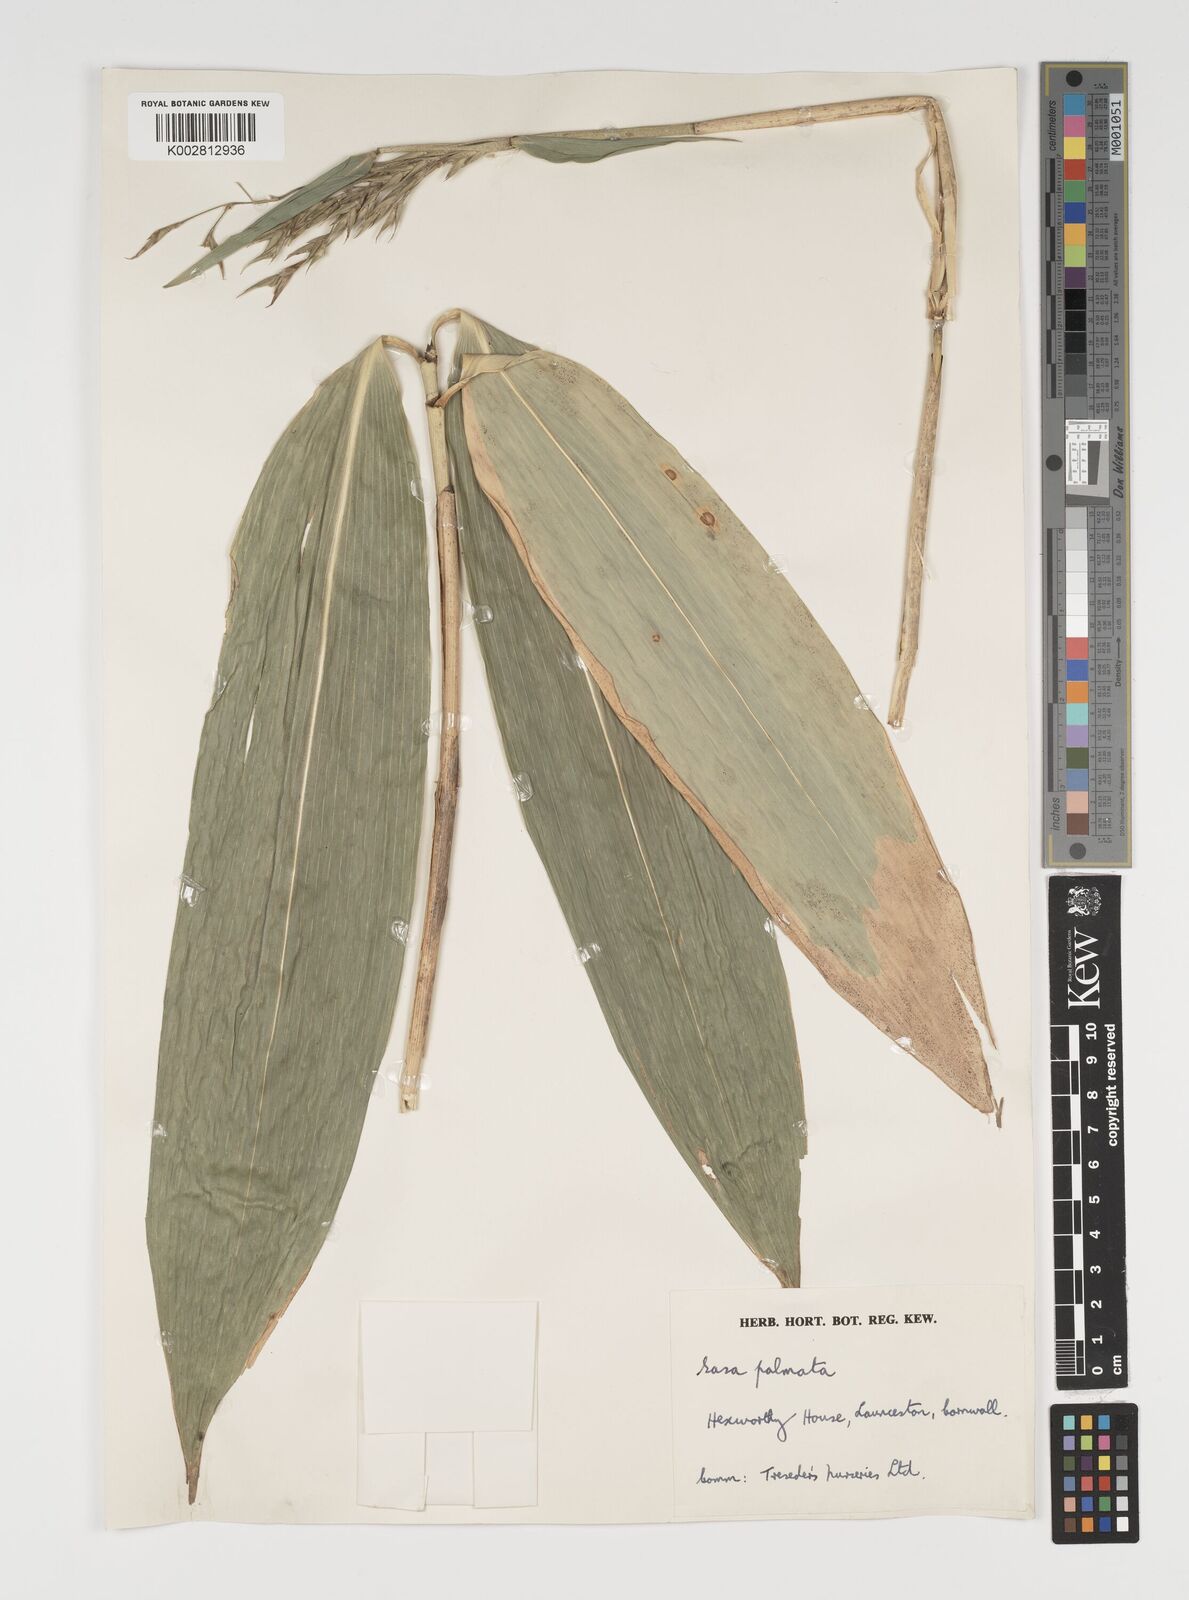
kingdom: Plantae
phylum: Tracheophyta
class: Liliopsida
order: Poales
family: Poaceae
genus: Sasa
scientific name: Sasa palmata
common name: Broad-leaved bamboo
